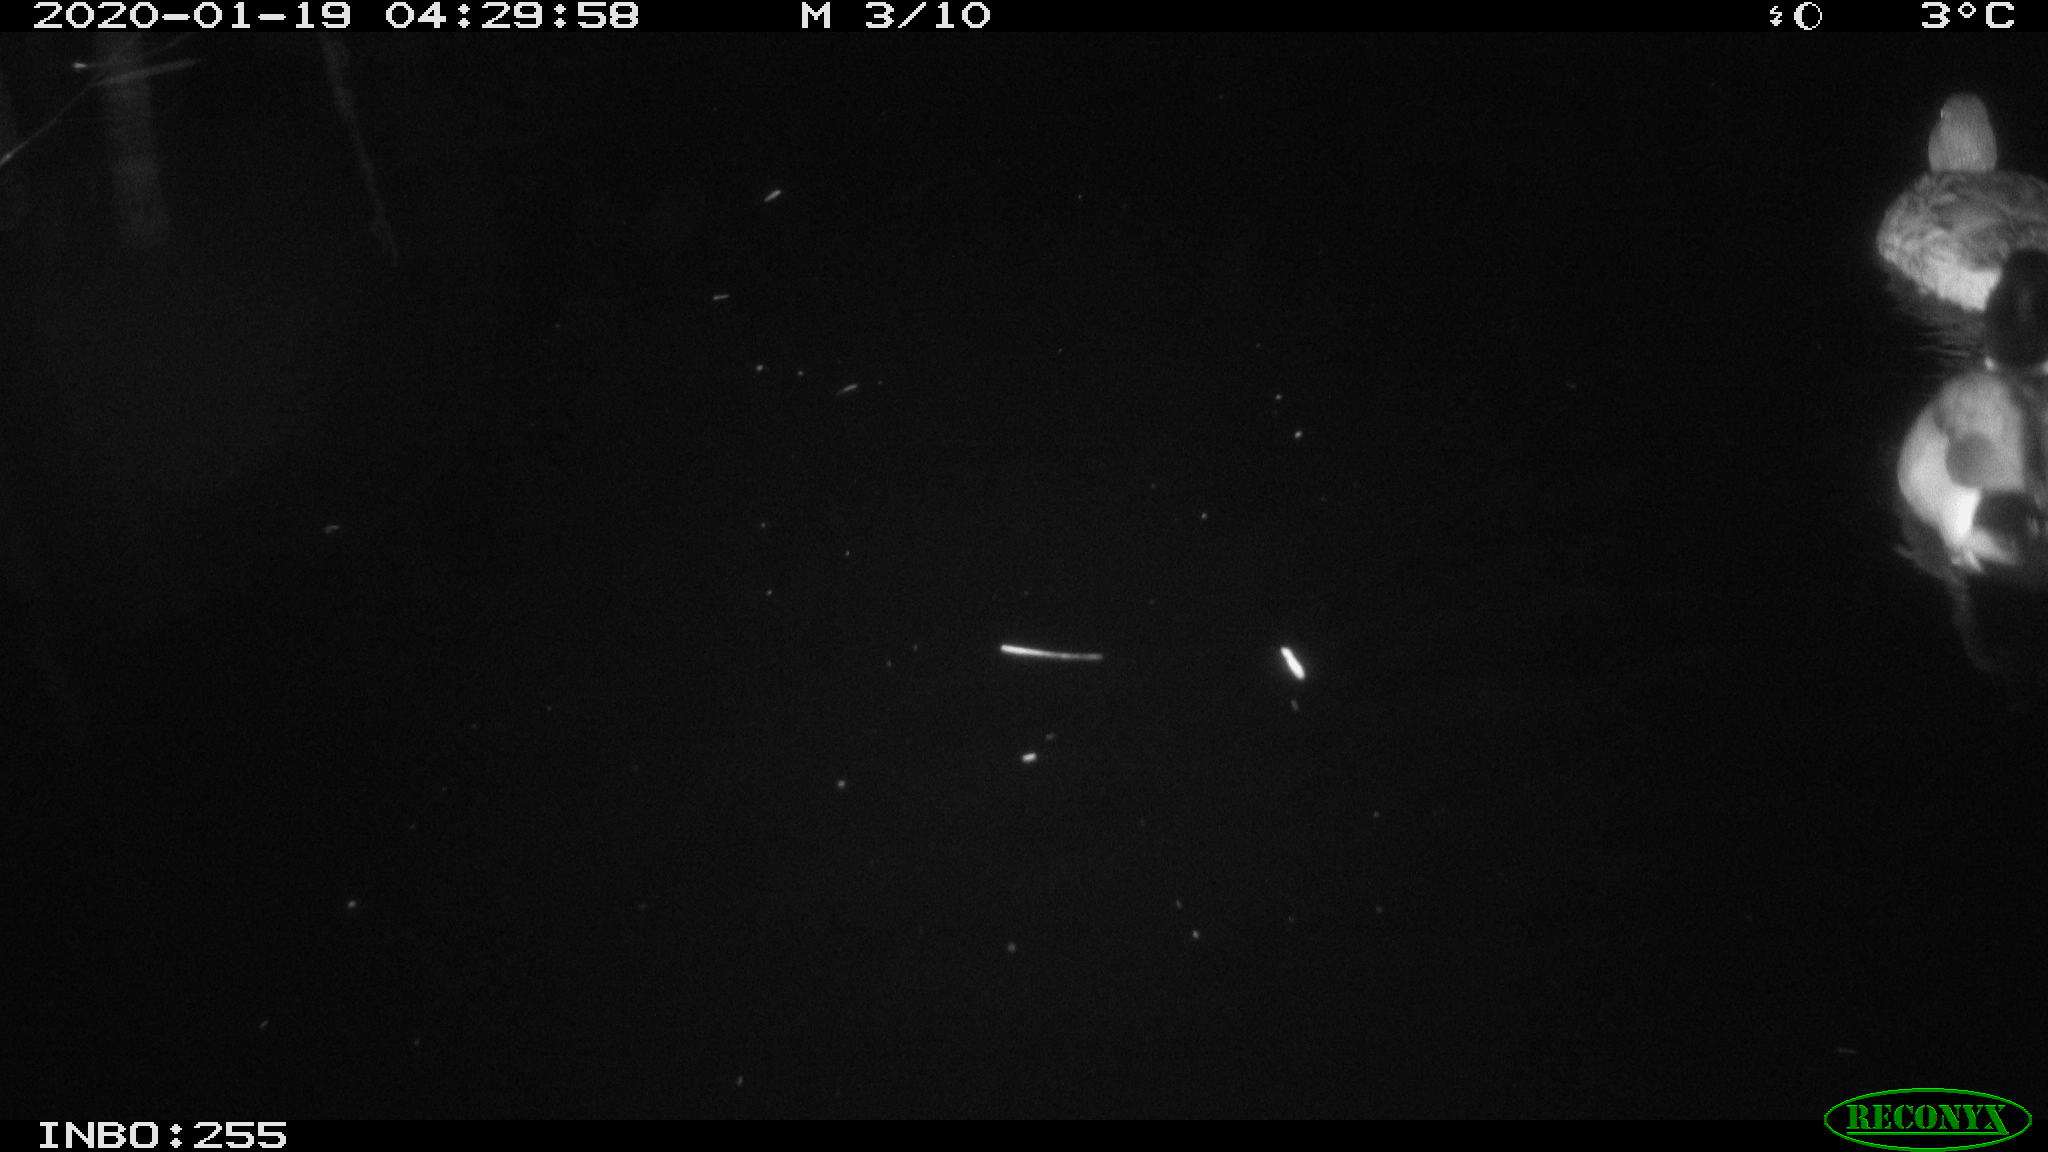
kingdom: Animalia
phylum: Chordata
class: Aves
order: Anseriformes
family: Anatidae
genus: Anas
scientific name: Anas platyrhynchos
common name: Mallard
